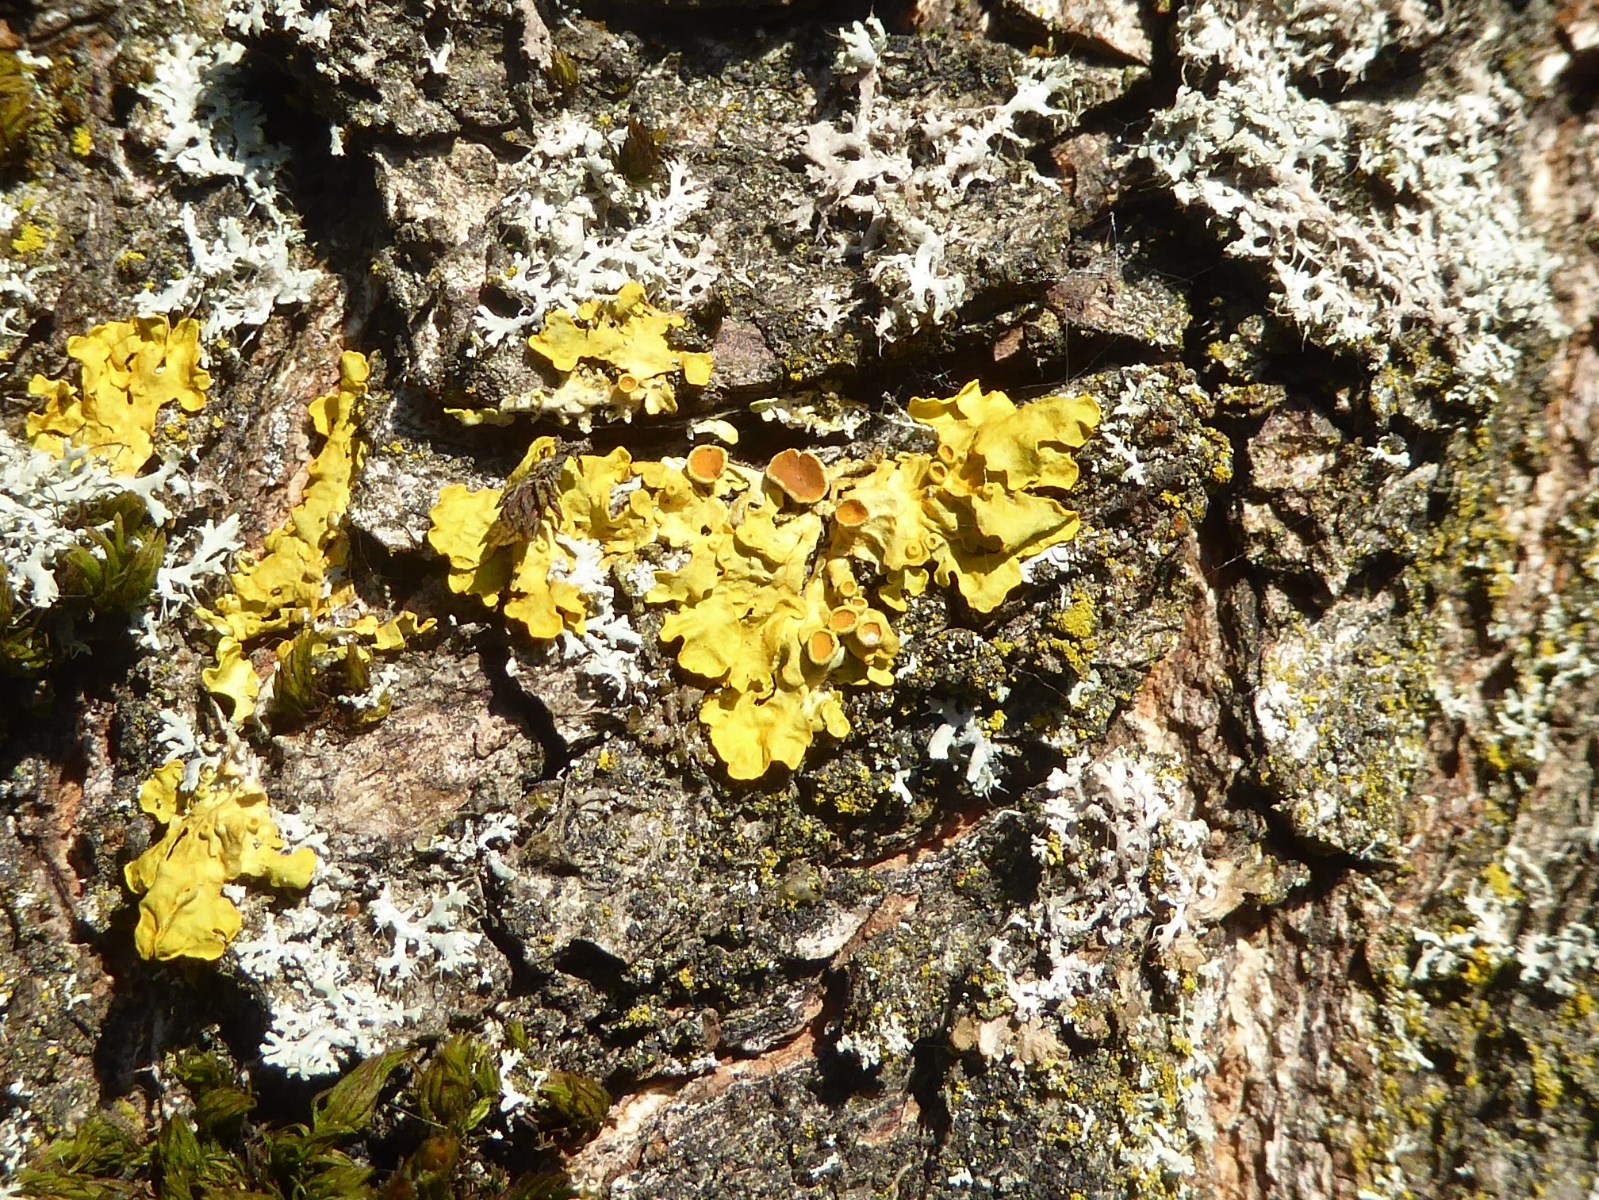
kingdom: Fungi
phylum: Ascomycota
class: Lecanoromycetes
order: Teloschistales
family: Teloschistaceae
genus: Xanthoria
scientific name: Xanthoria parietina
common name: almindelig væggelav
